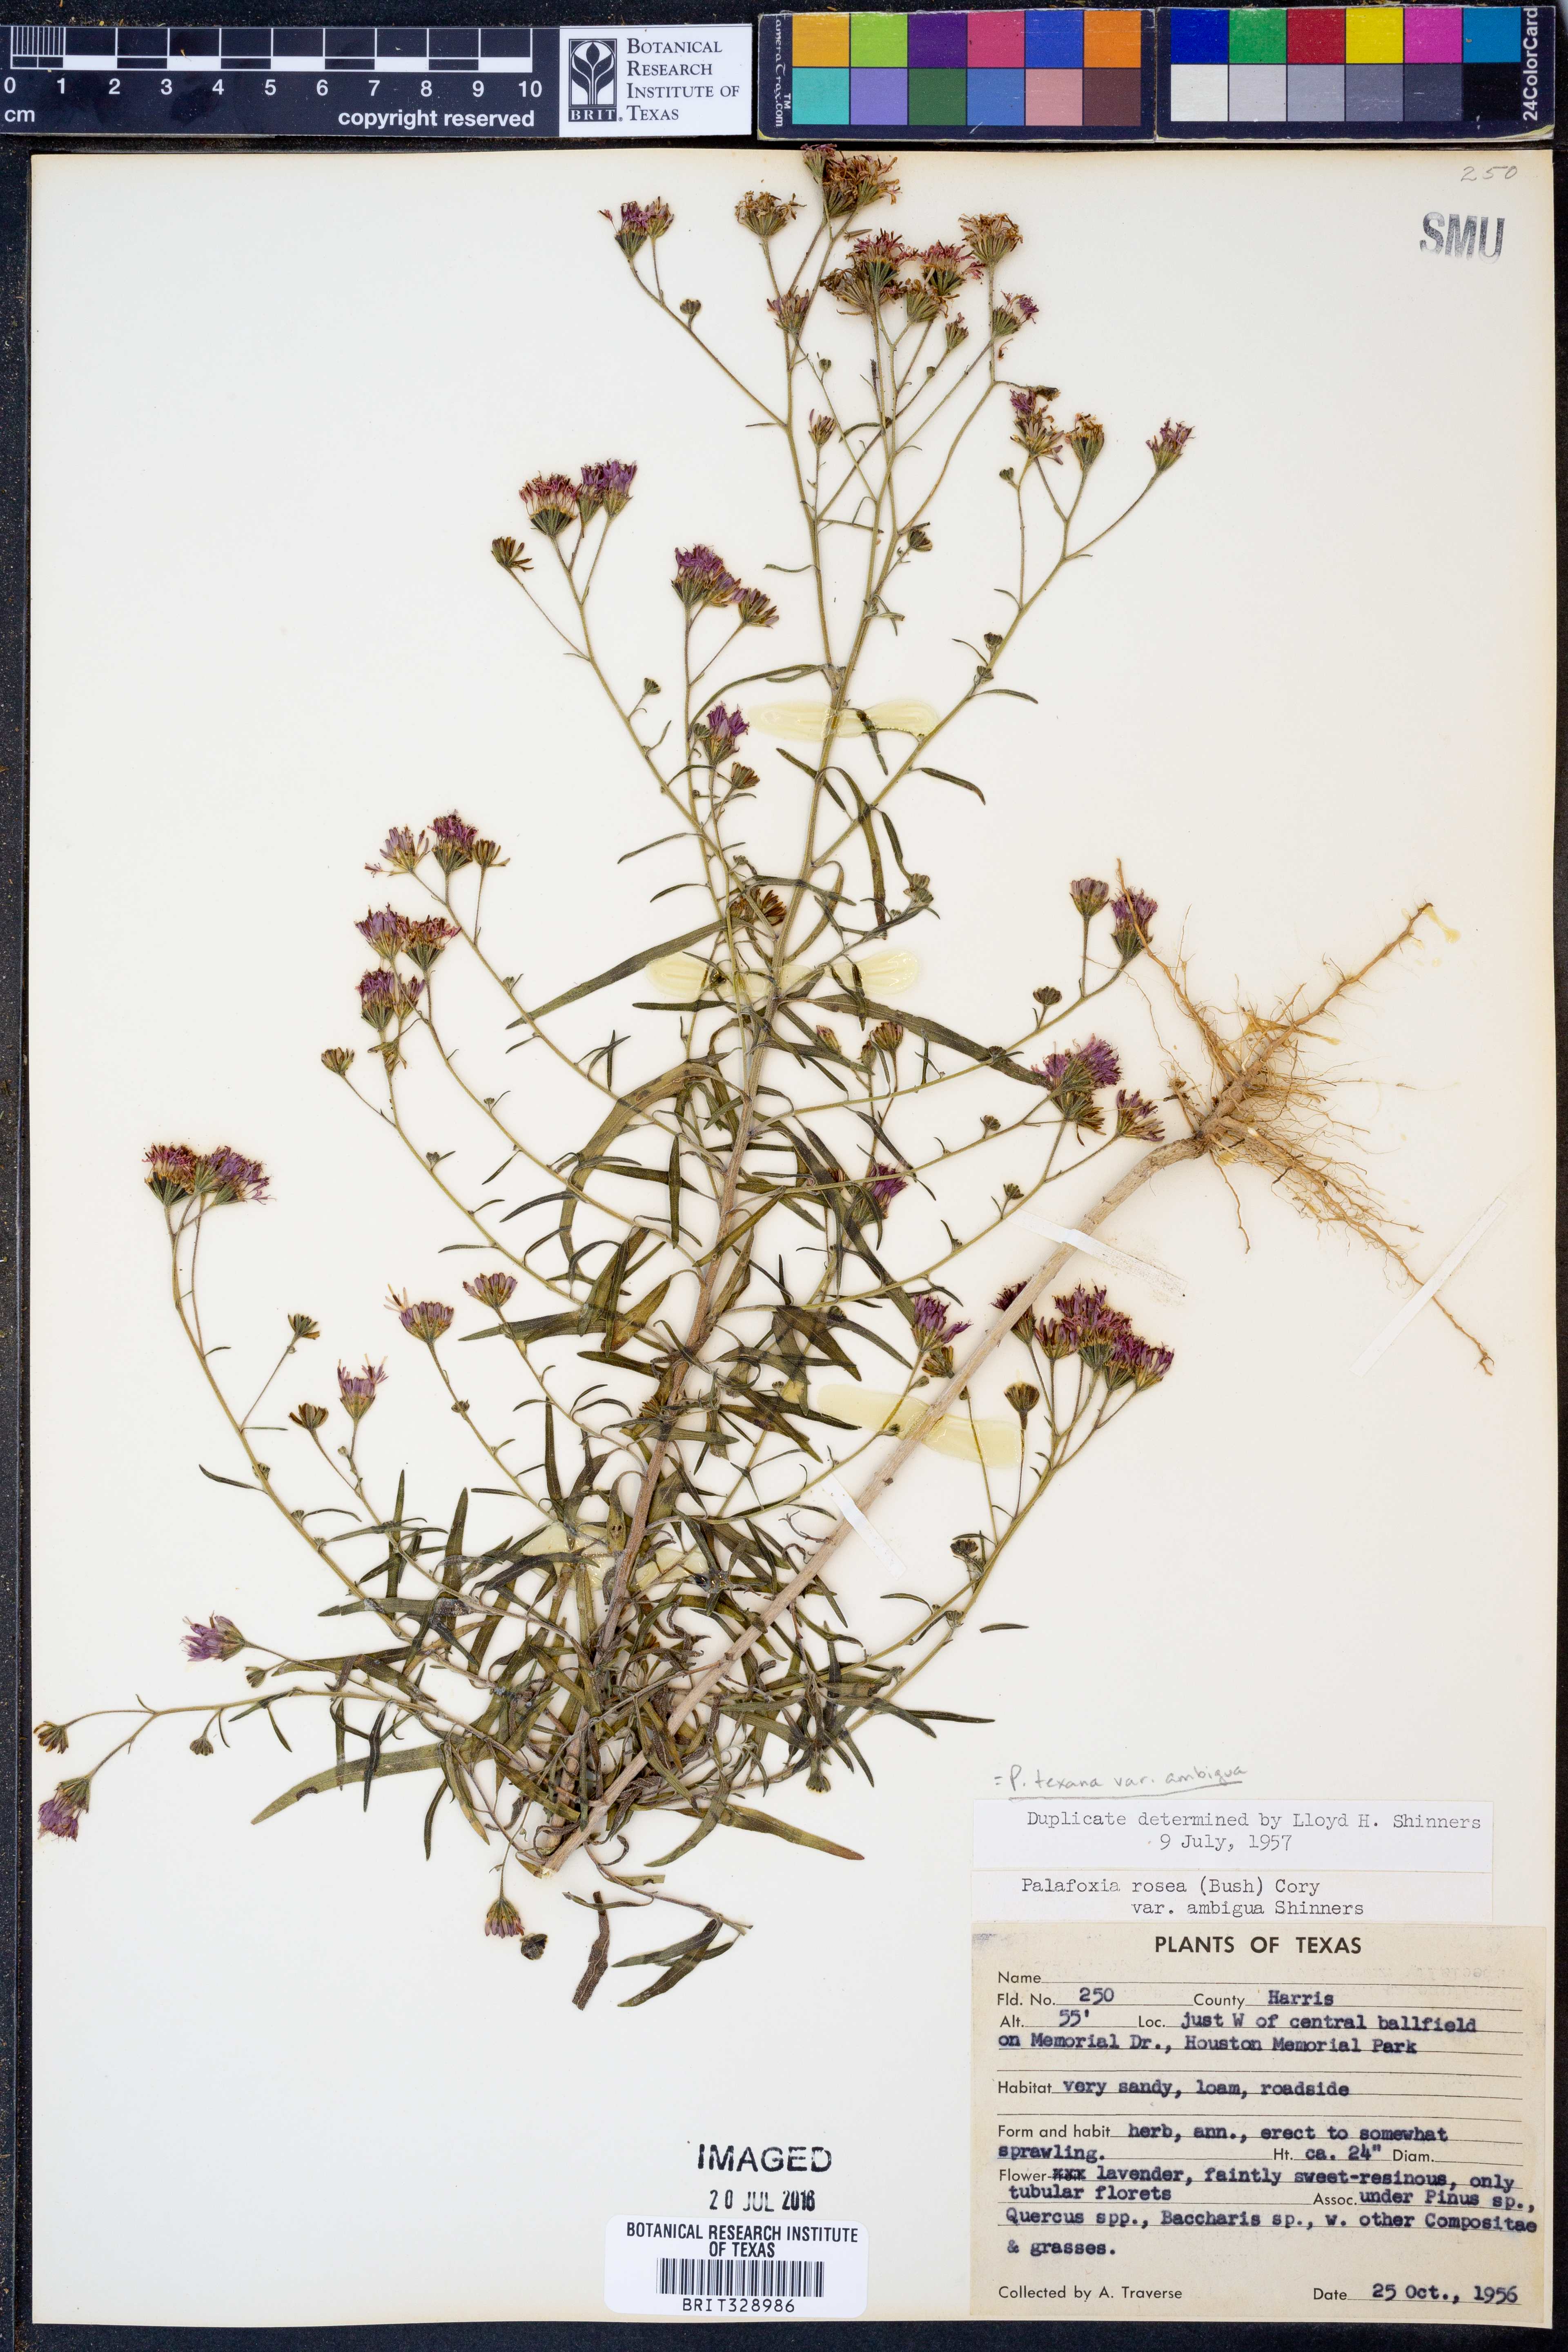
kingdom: Plantae
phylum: Tracheophyta
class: Magnoliopsida
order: Asterales
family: Asteraceae
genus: Palafoxia
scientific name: Palafoxia texana
